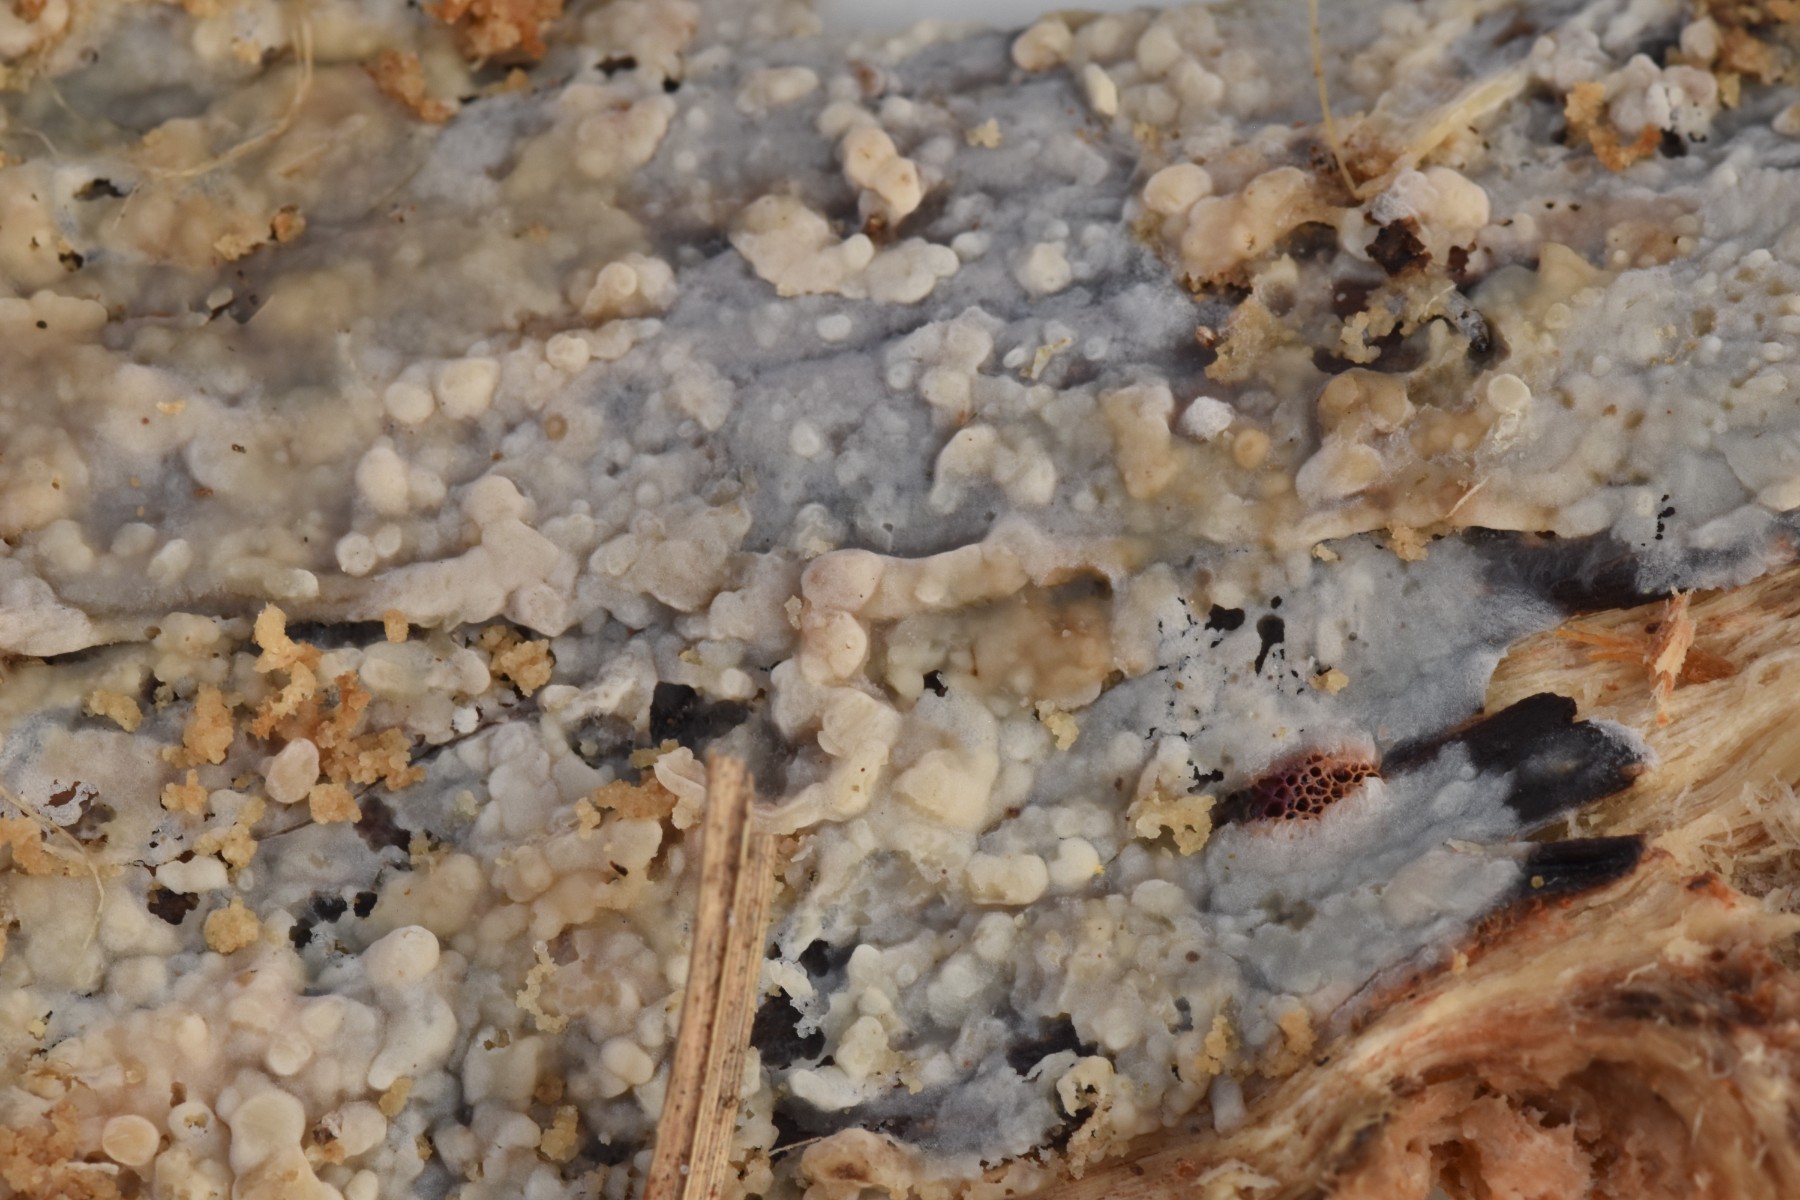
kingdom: Fungi
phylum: Basidiomycota
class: Agaricomycetes
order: Agaricales
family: Radulomycetaceae
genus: Radulomyces
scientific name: Radulomyces confluens
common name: glat naftalinskind
